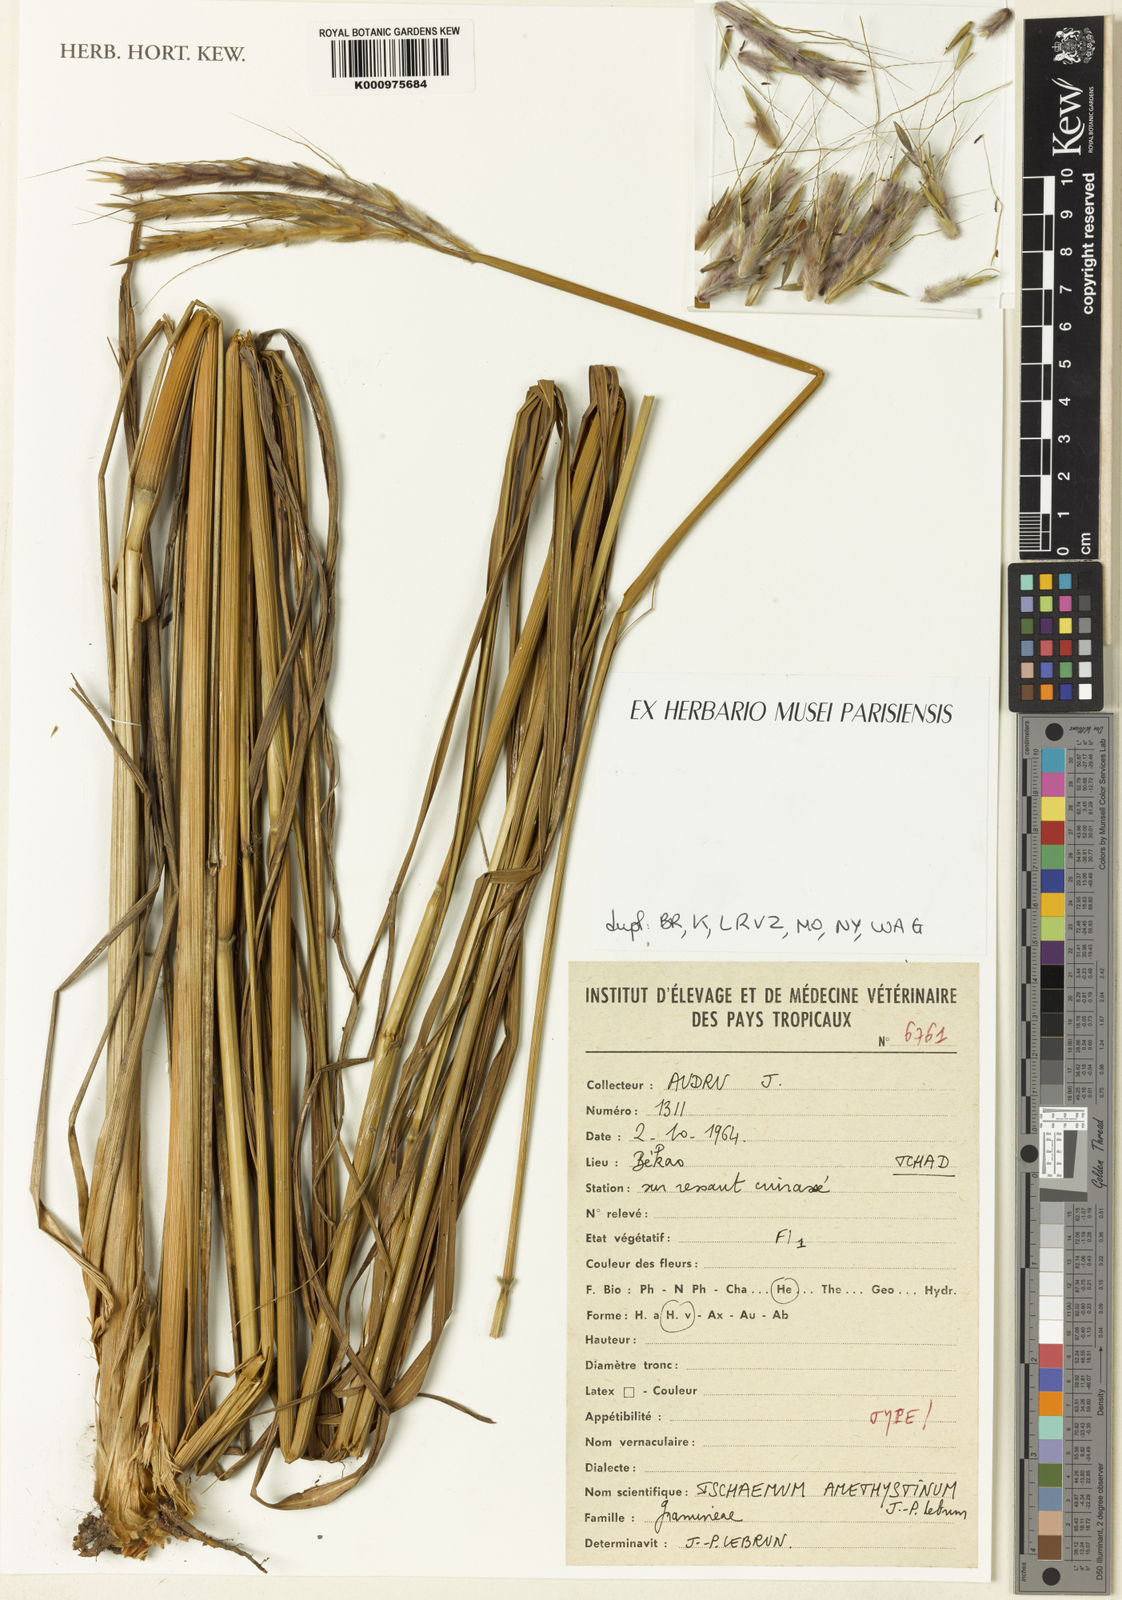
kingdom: Plantae
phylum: Tracheophyta
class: Liliopsida
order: Poales
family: Poaceae
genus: Ischaemum
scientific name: Ischaemum
